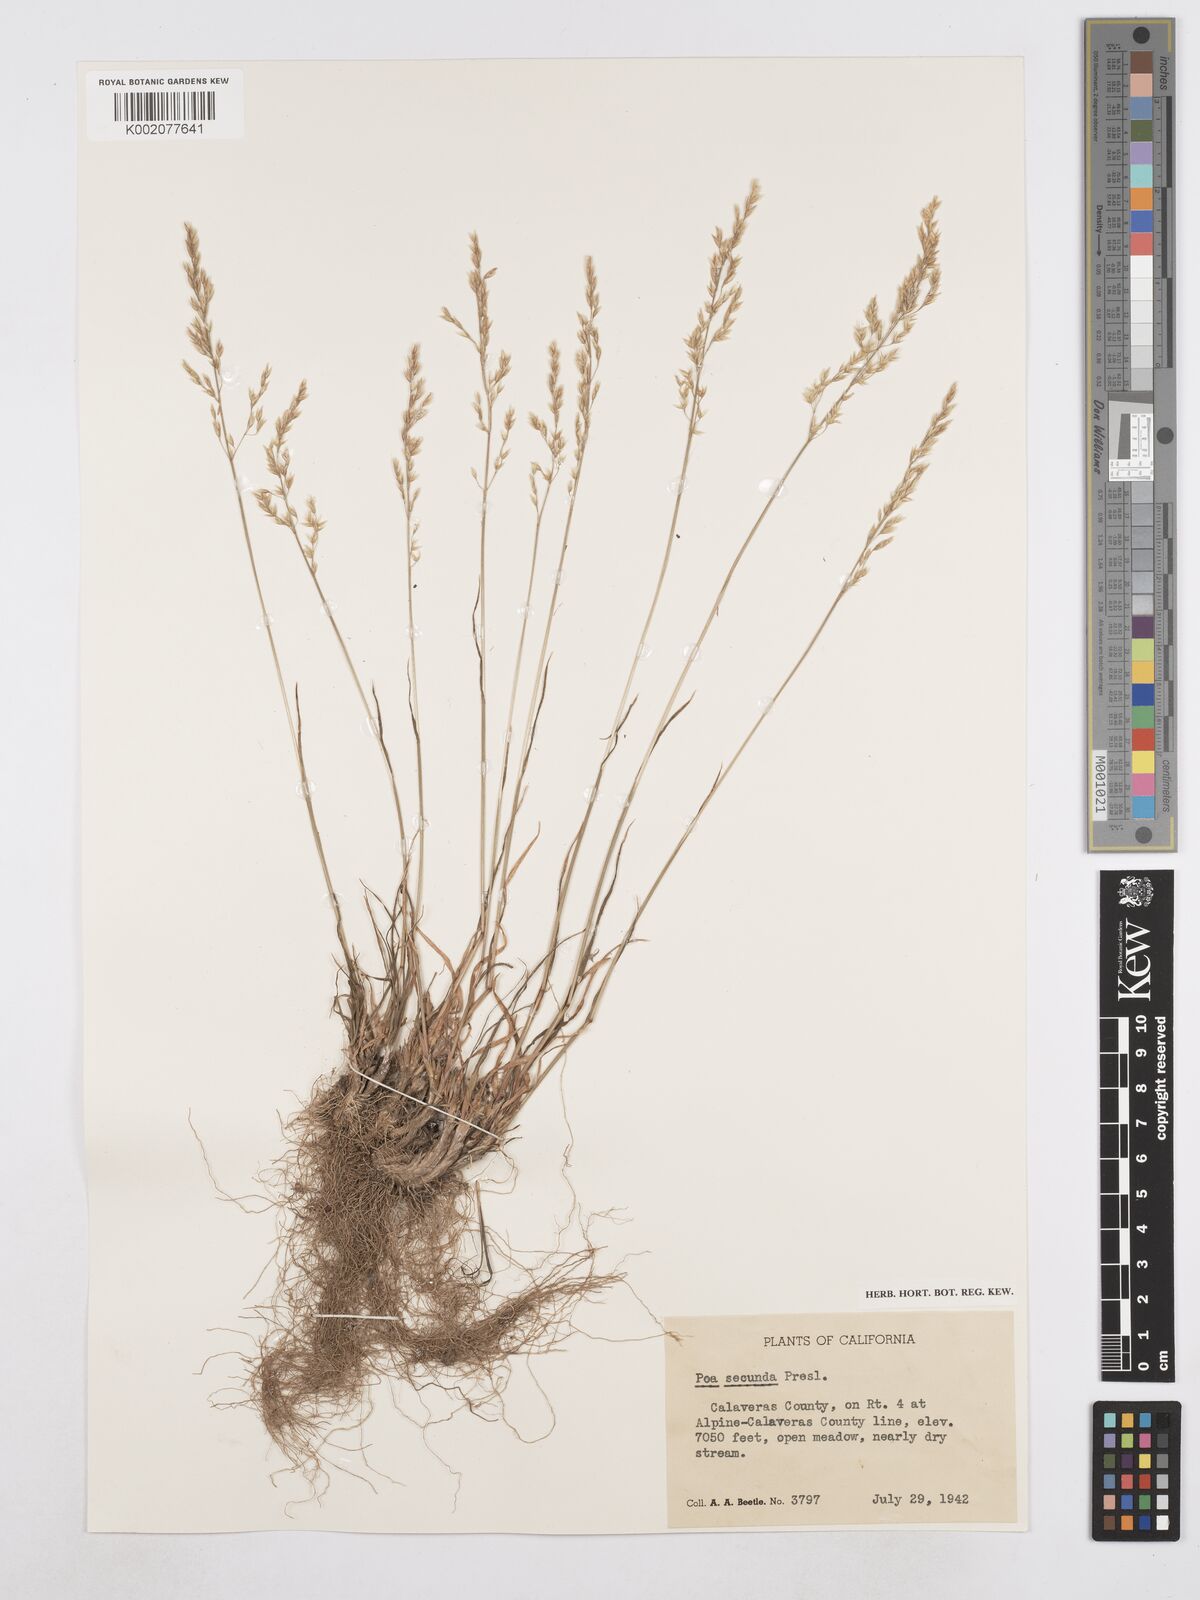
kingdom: Plantae
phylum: Tracheophyta
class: Liliopsida
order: Poales
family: Poaceae
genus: Poa
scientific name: Poa secunda
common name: Sandberg bluegrass
